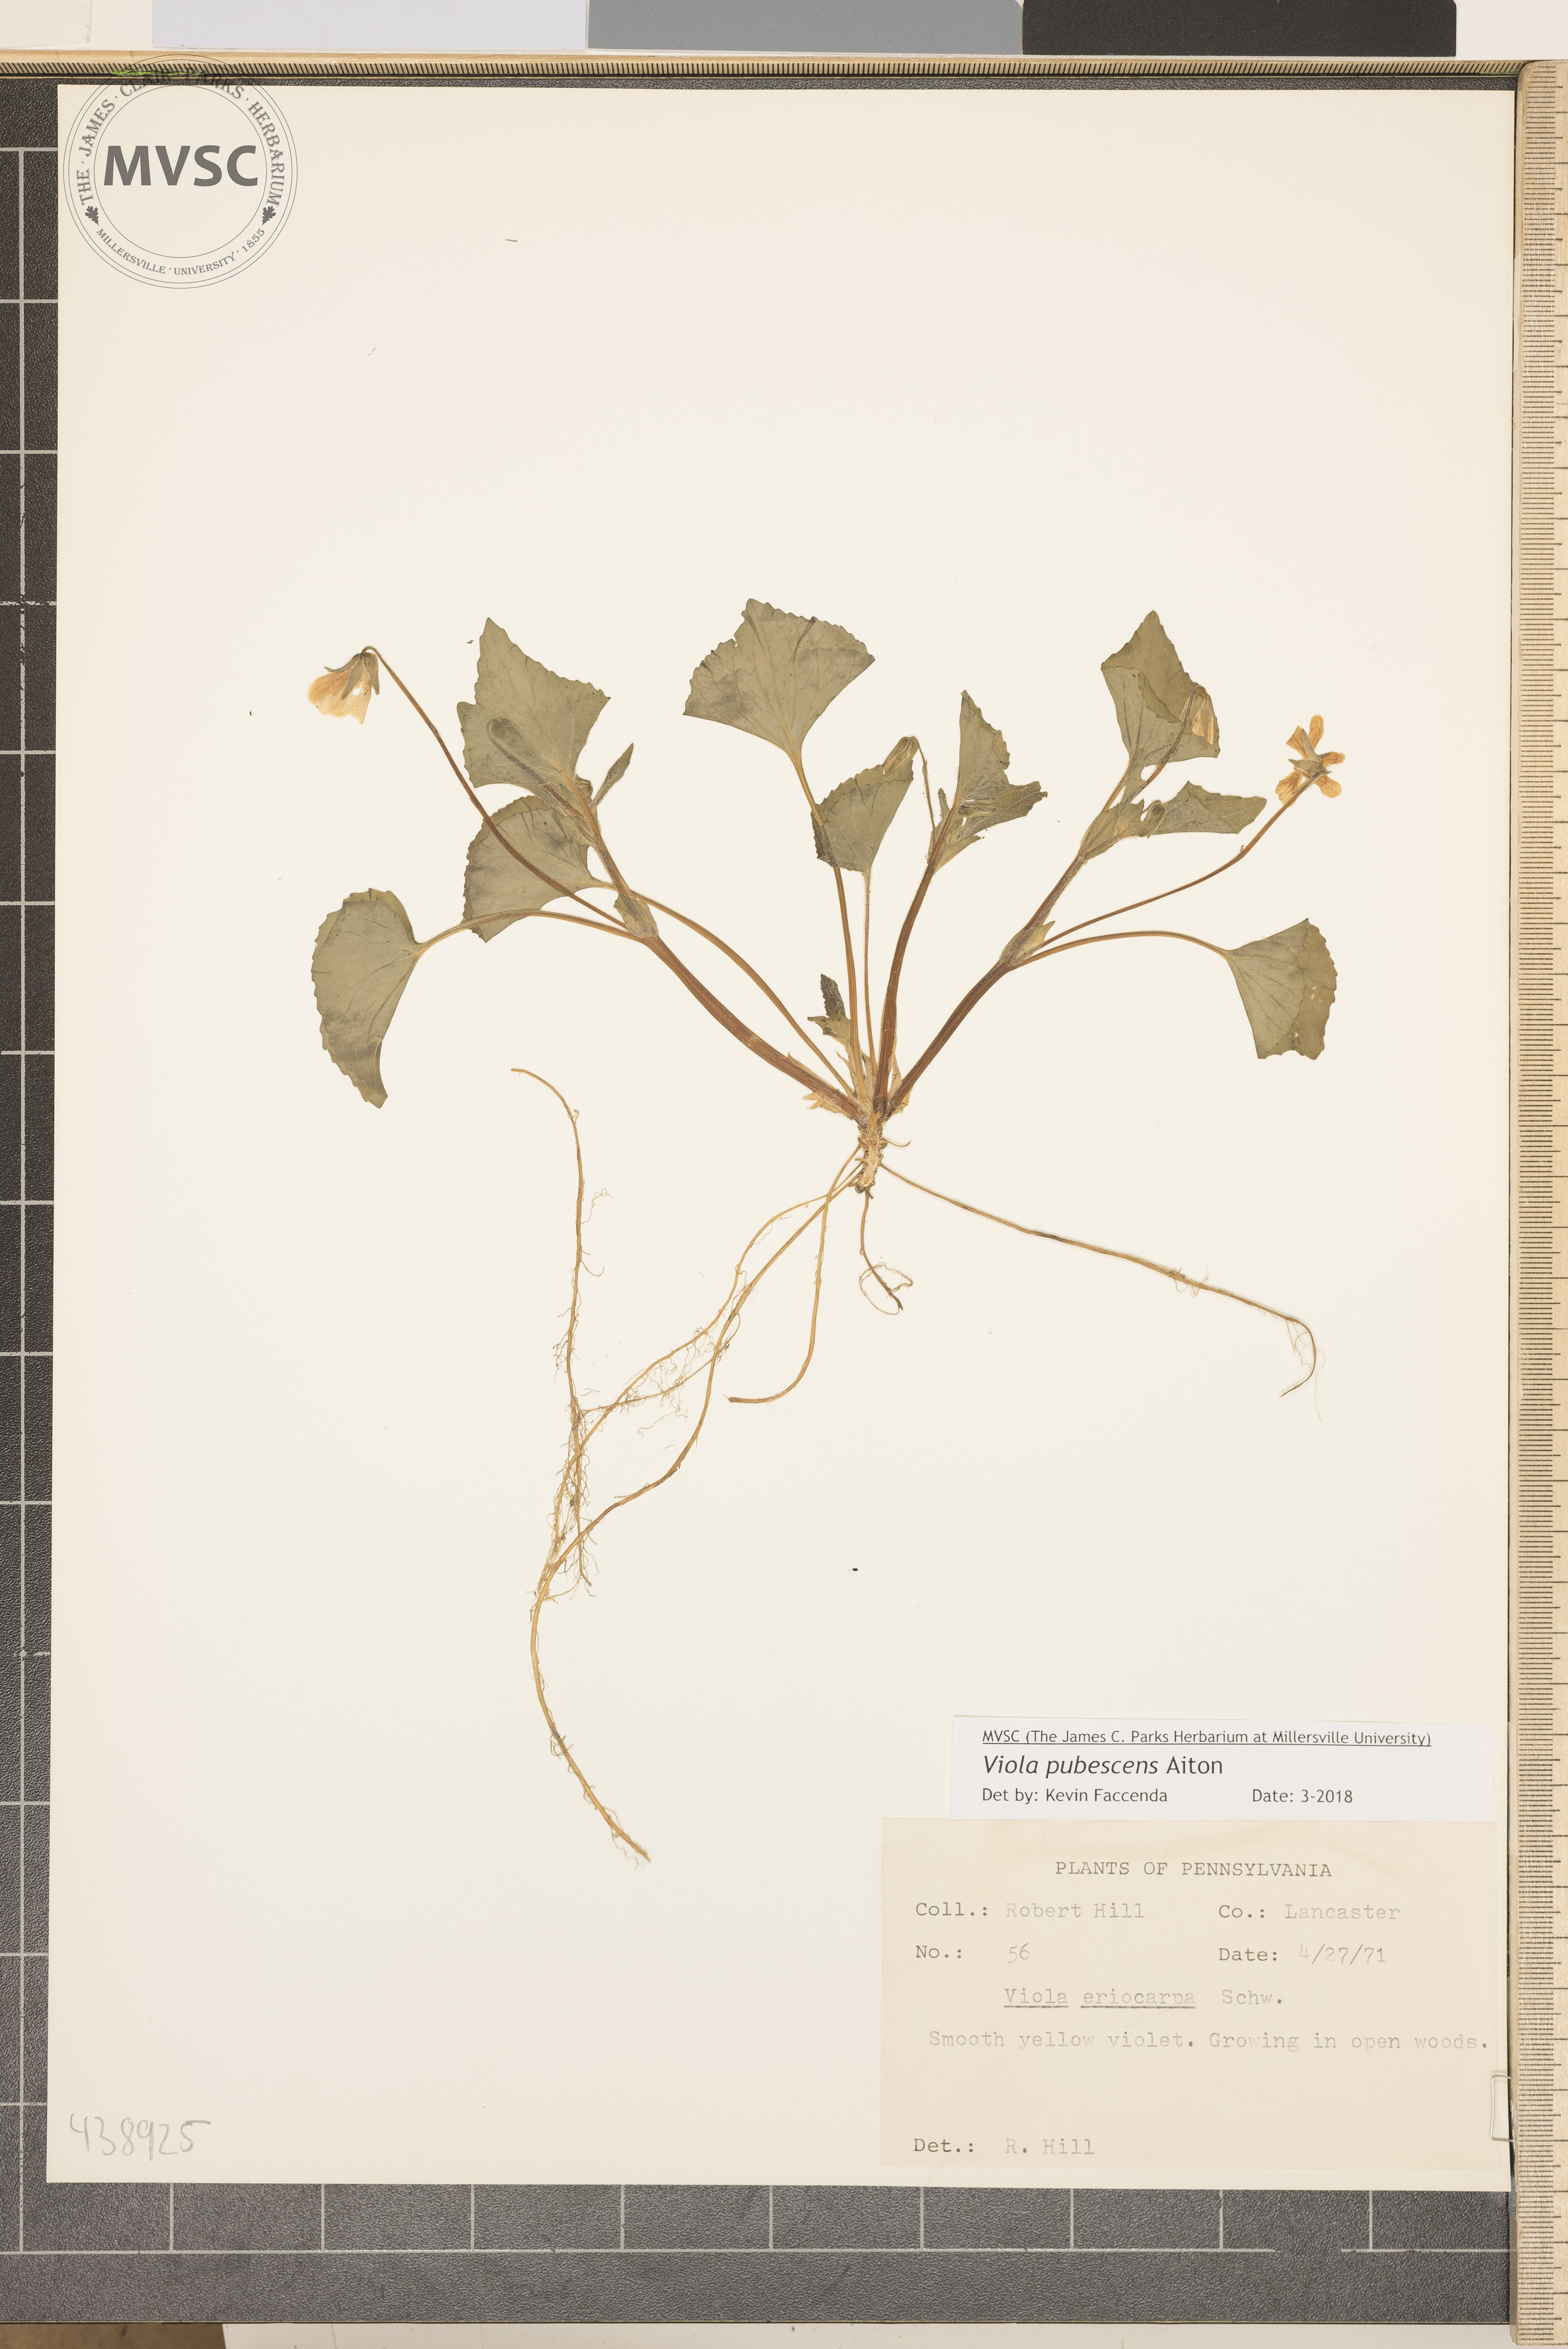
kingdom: Plantae
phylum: Tracheophyta
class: Magnoliopsida
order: Malpighiales
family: Violaceae
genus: Viola
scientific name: Viola pubescens
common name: Smooth yellow violet
